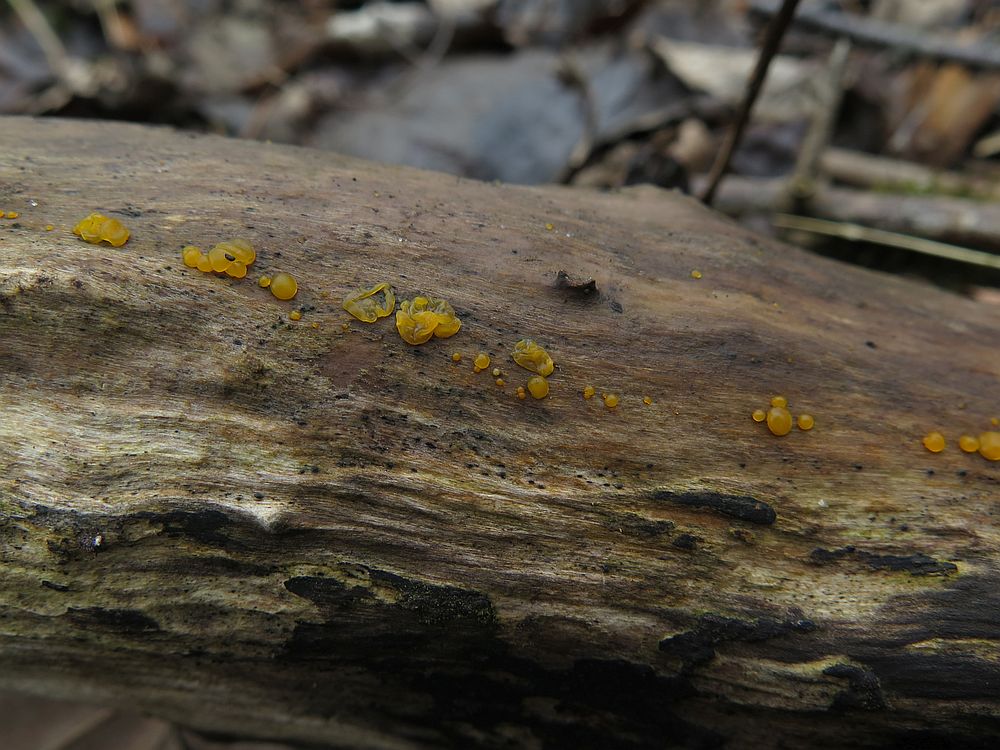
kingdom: Fungi
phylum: Basidiomycota
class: Dacrymycetes
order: Dacrymycetales
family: Dacrymycetaceae
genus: Dacrymyces
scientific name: Dacrymyces lacrymalis
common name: rynket tåresvamp
